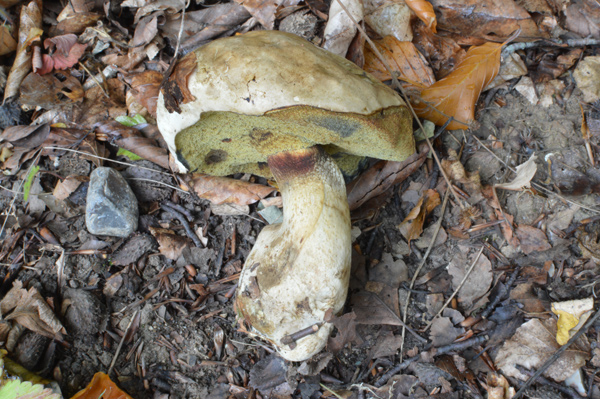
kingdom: Fungi
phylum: Basidiomycota
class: Agaricomycetes
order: Boletales
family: Boletaceae
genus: Butyriboletus
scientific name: Butyriboletus fechtneri
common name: sølvskinnende rørhat
